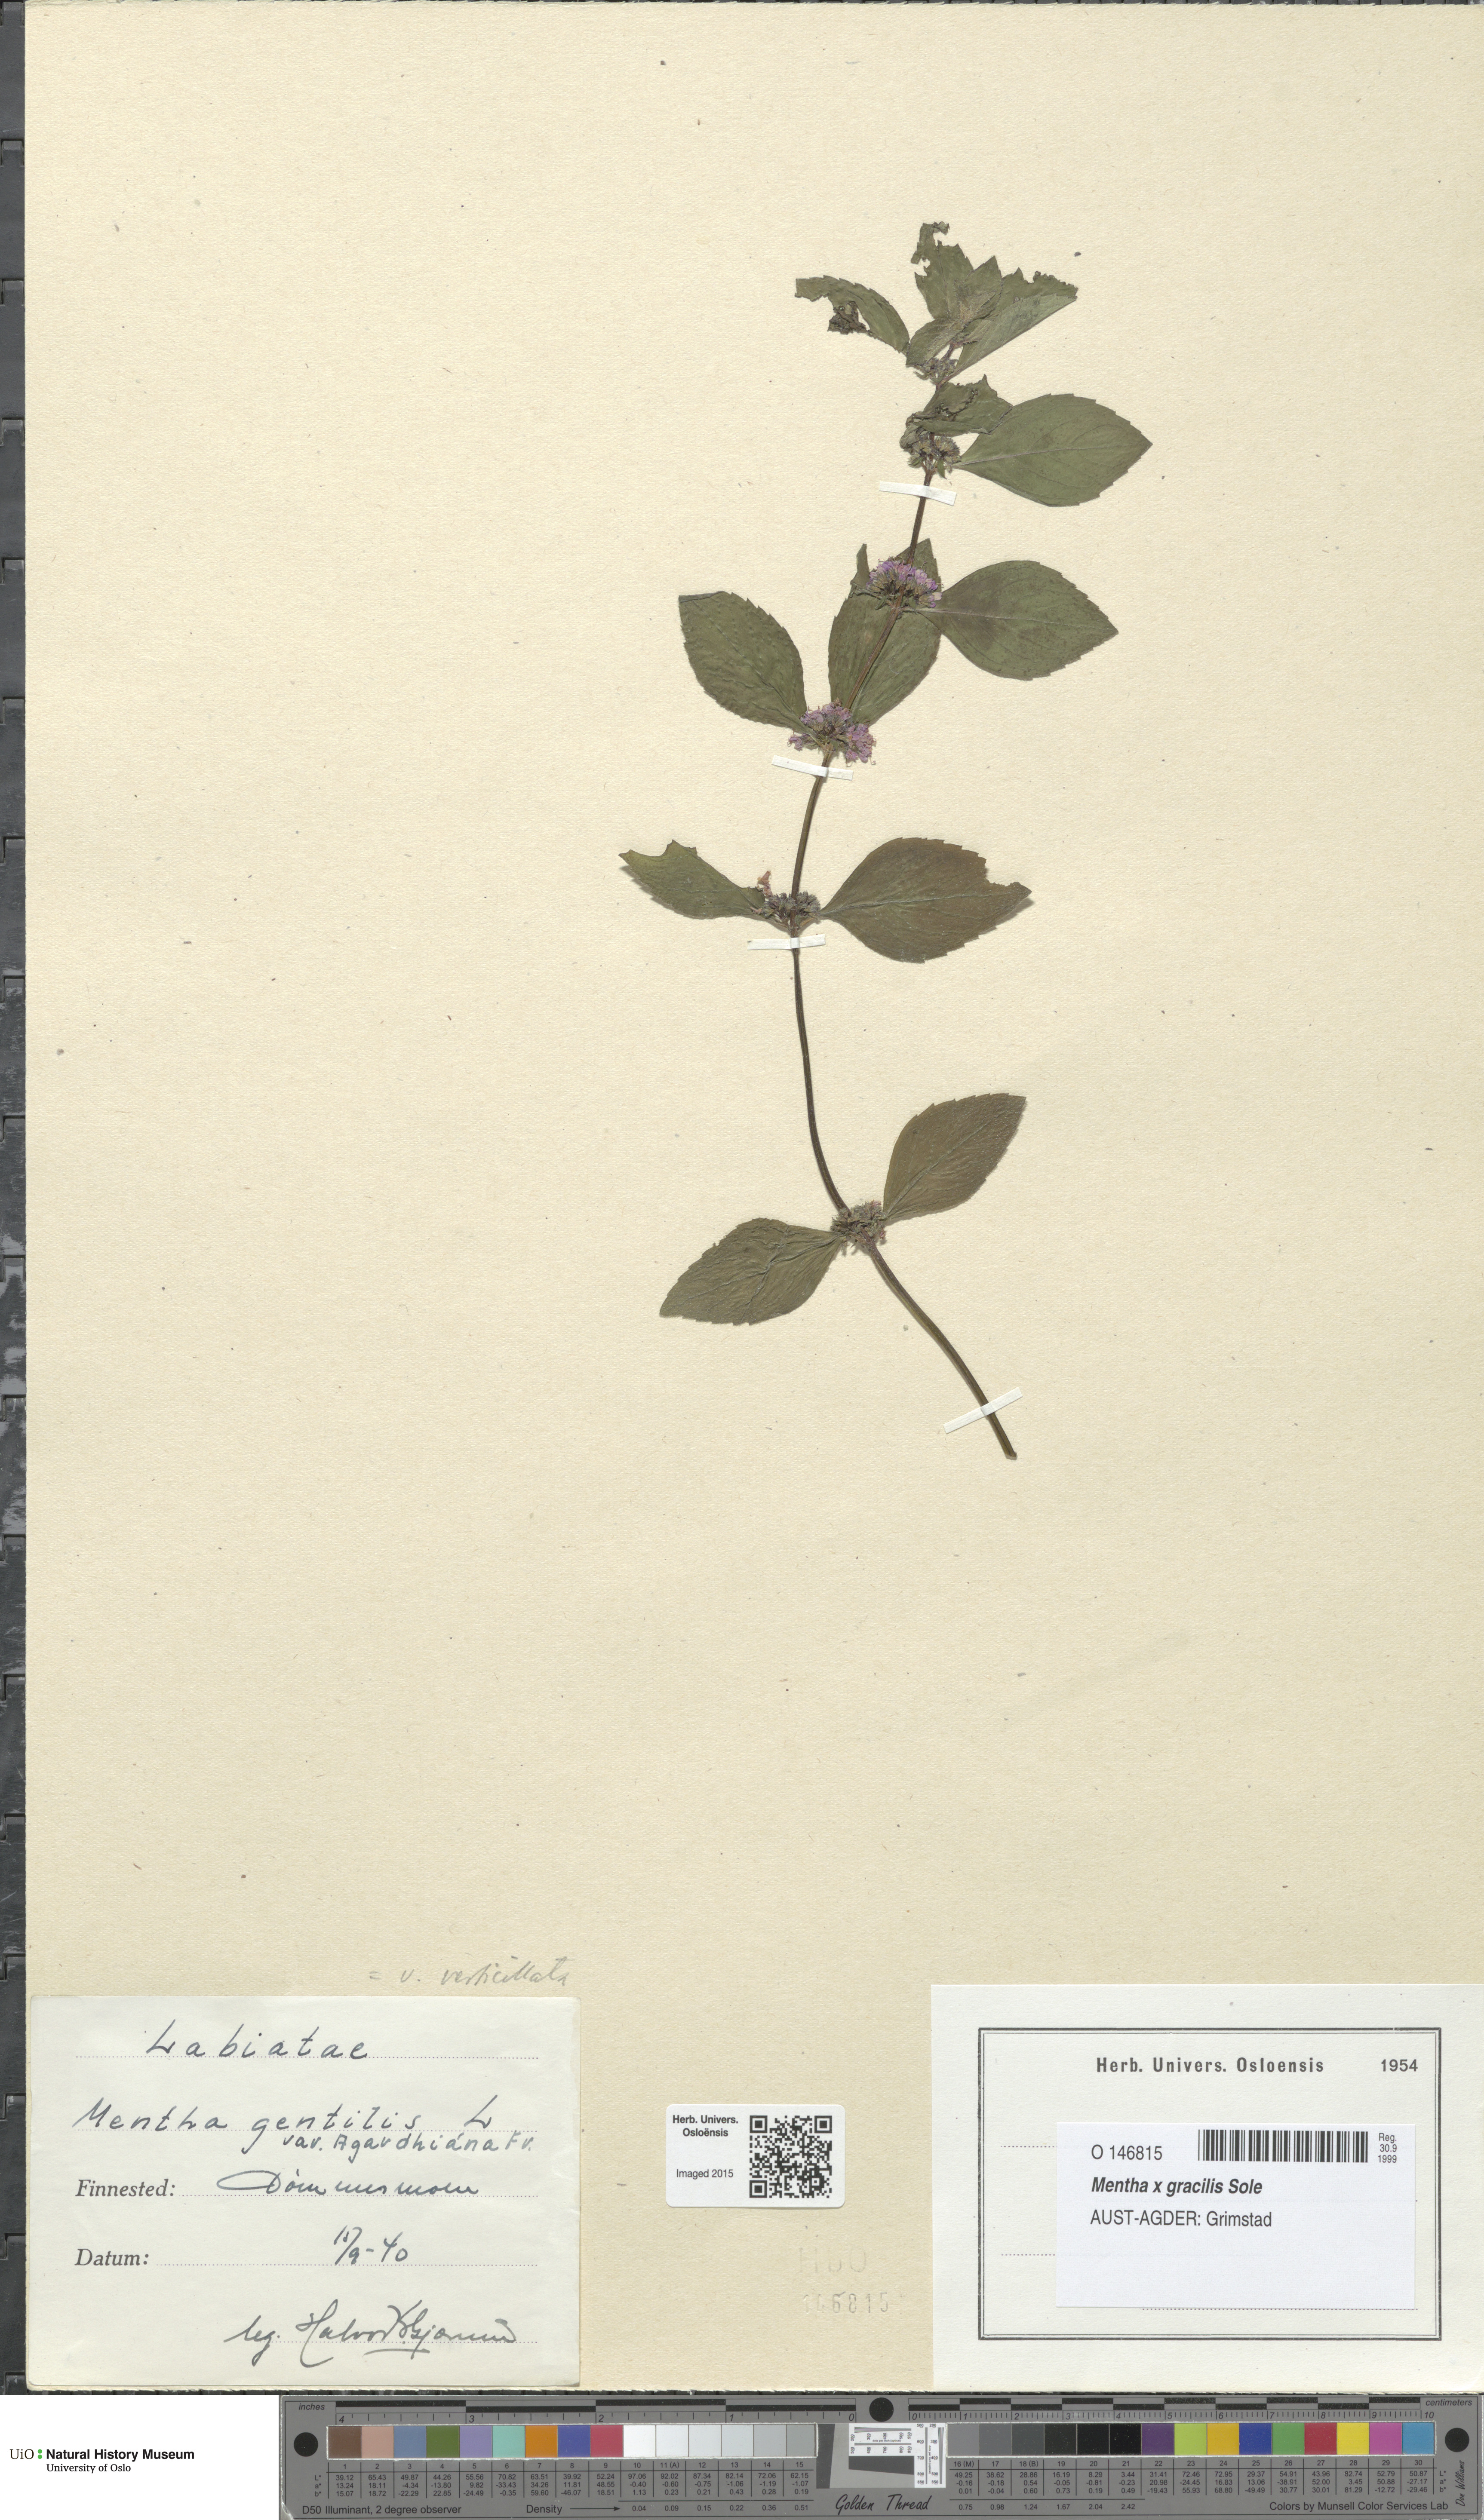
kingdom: Plantae
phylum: Tracheophyta
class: Magnoliopsida
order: Lamiales
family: Lamiaceae
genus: Mentha
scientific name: Mentha arvensis
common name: Corn mint
